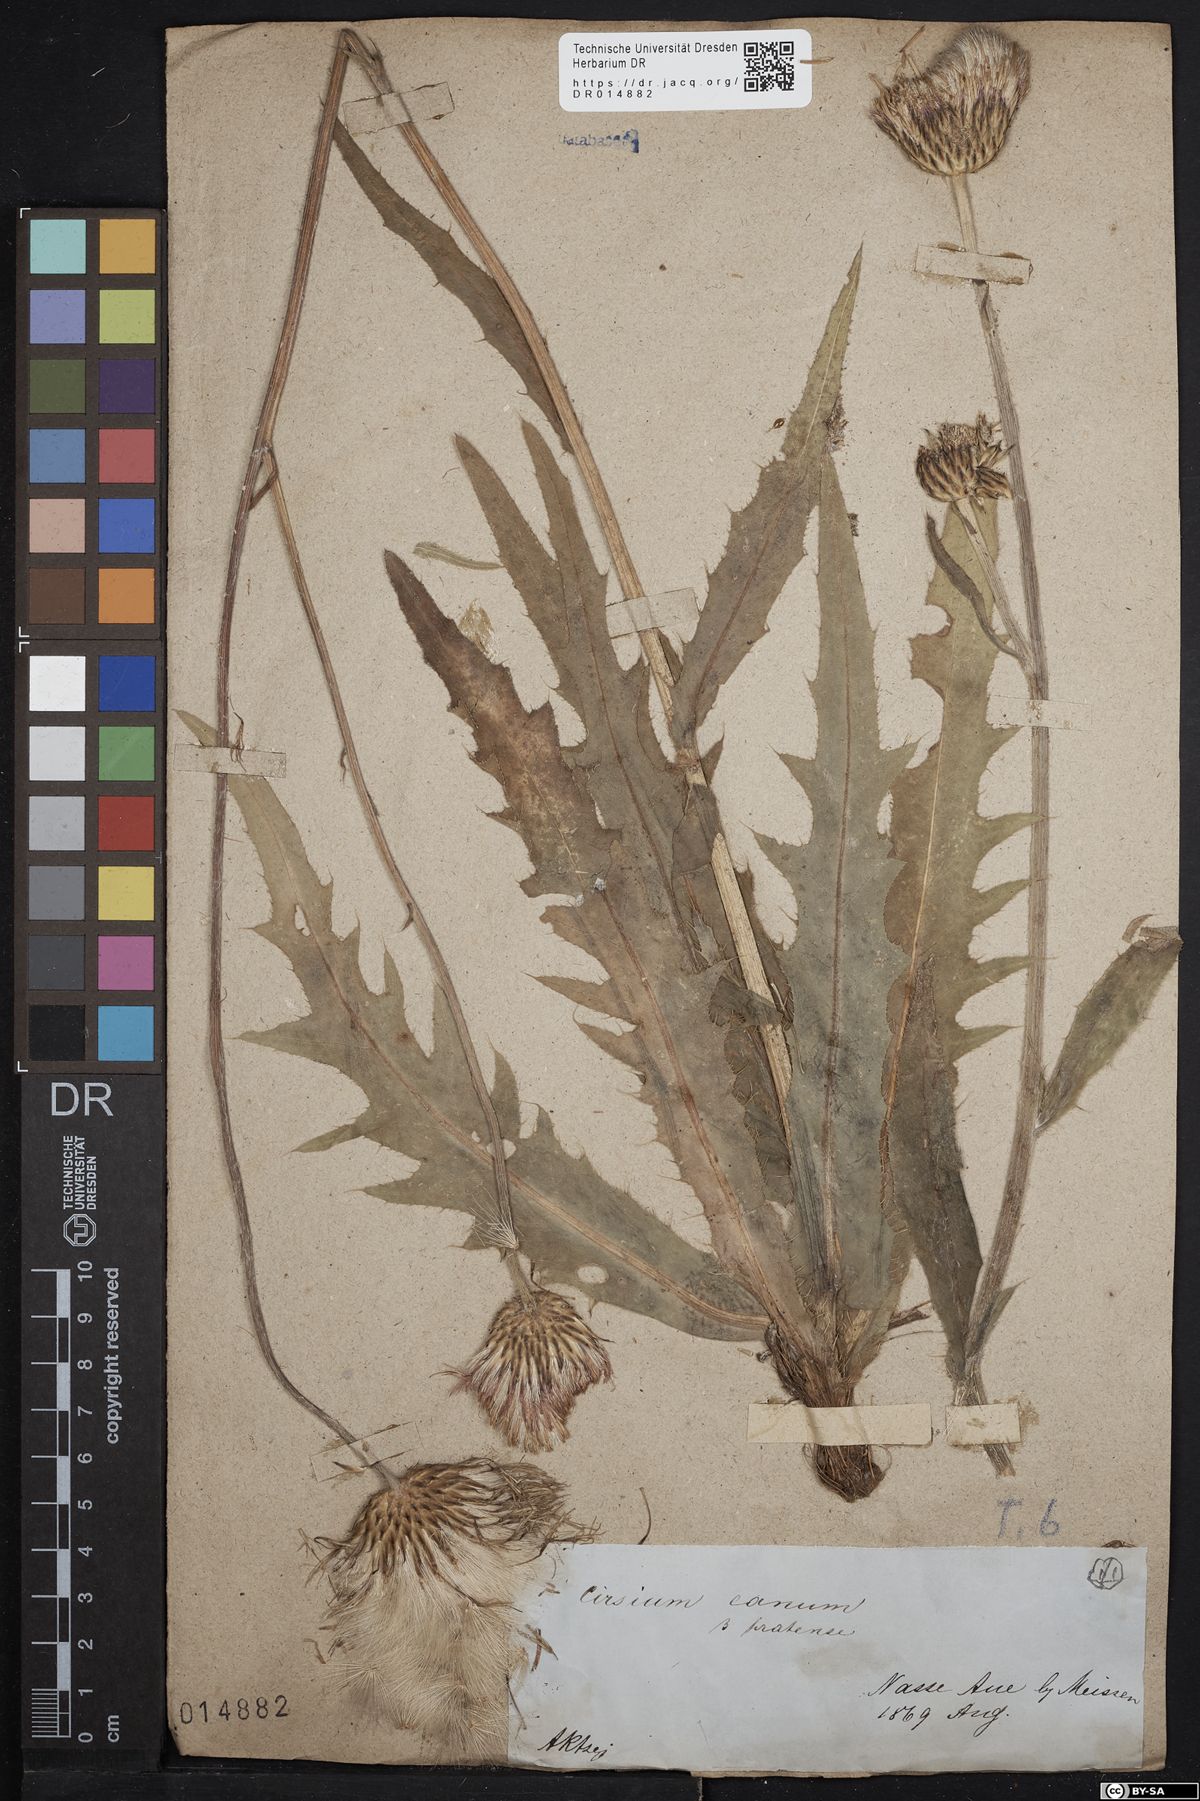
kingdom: Plantae
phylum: Tracheophyta
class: Magnoliopsida
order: Asterales
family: Asteraceae
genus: Cirsium
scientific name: Cirsium canum
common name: Queen anne's thistle
